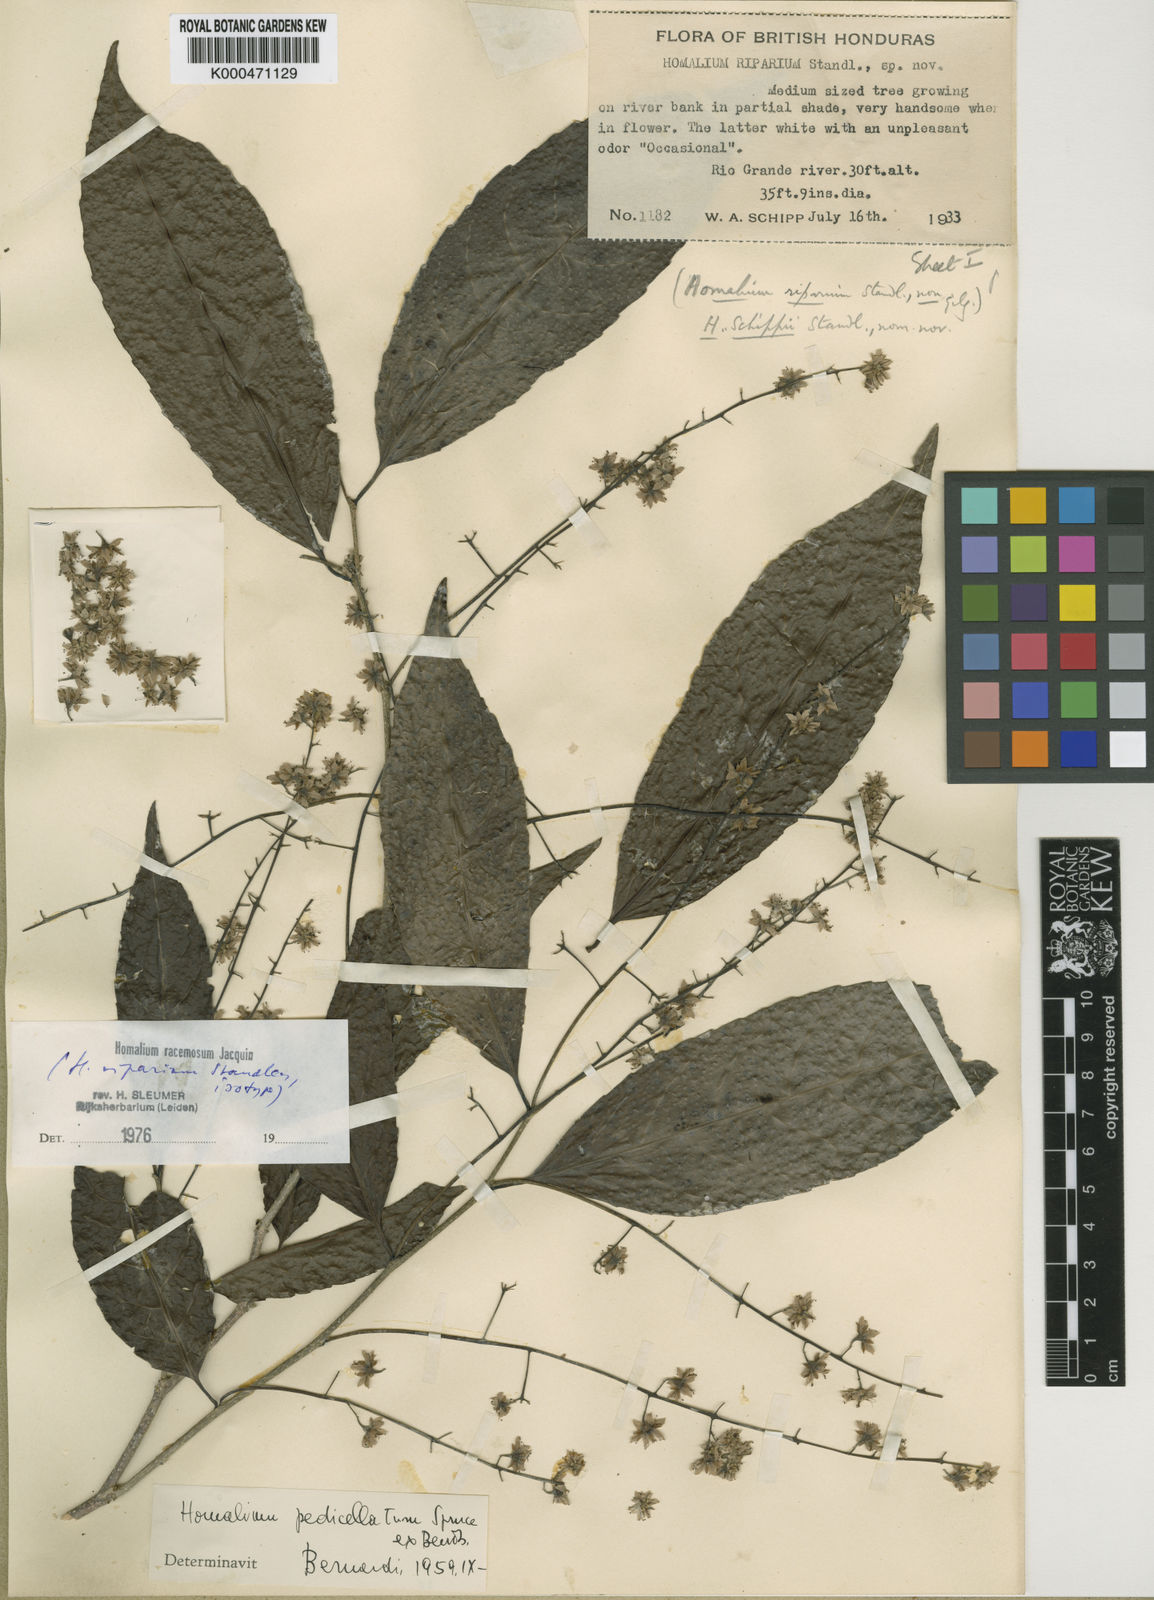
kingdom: Plantae
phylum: Tracheophyta
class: Magnoliopsida
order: Malpighiales
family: Salicaceae
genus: Homalium
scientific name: Homalium racemosum
